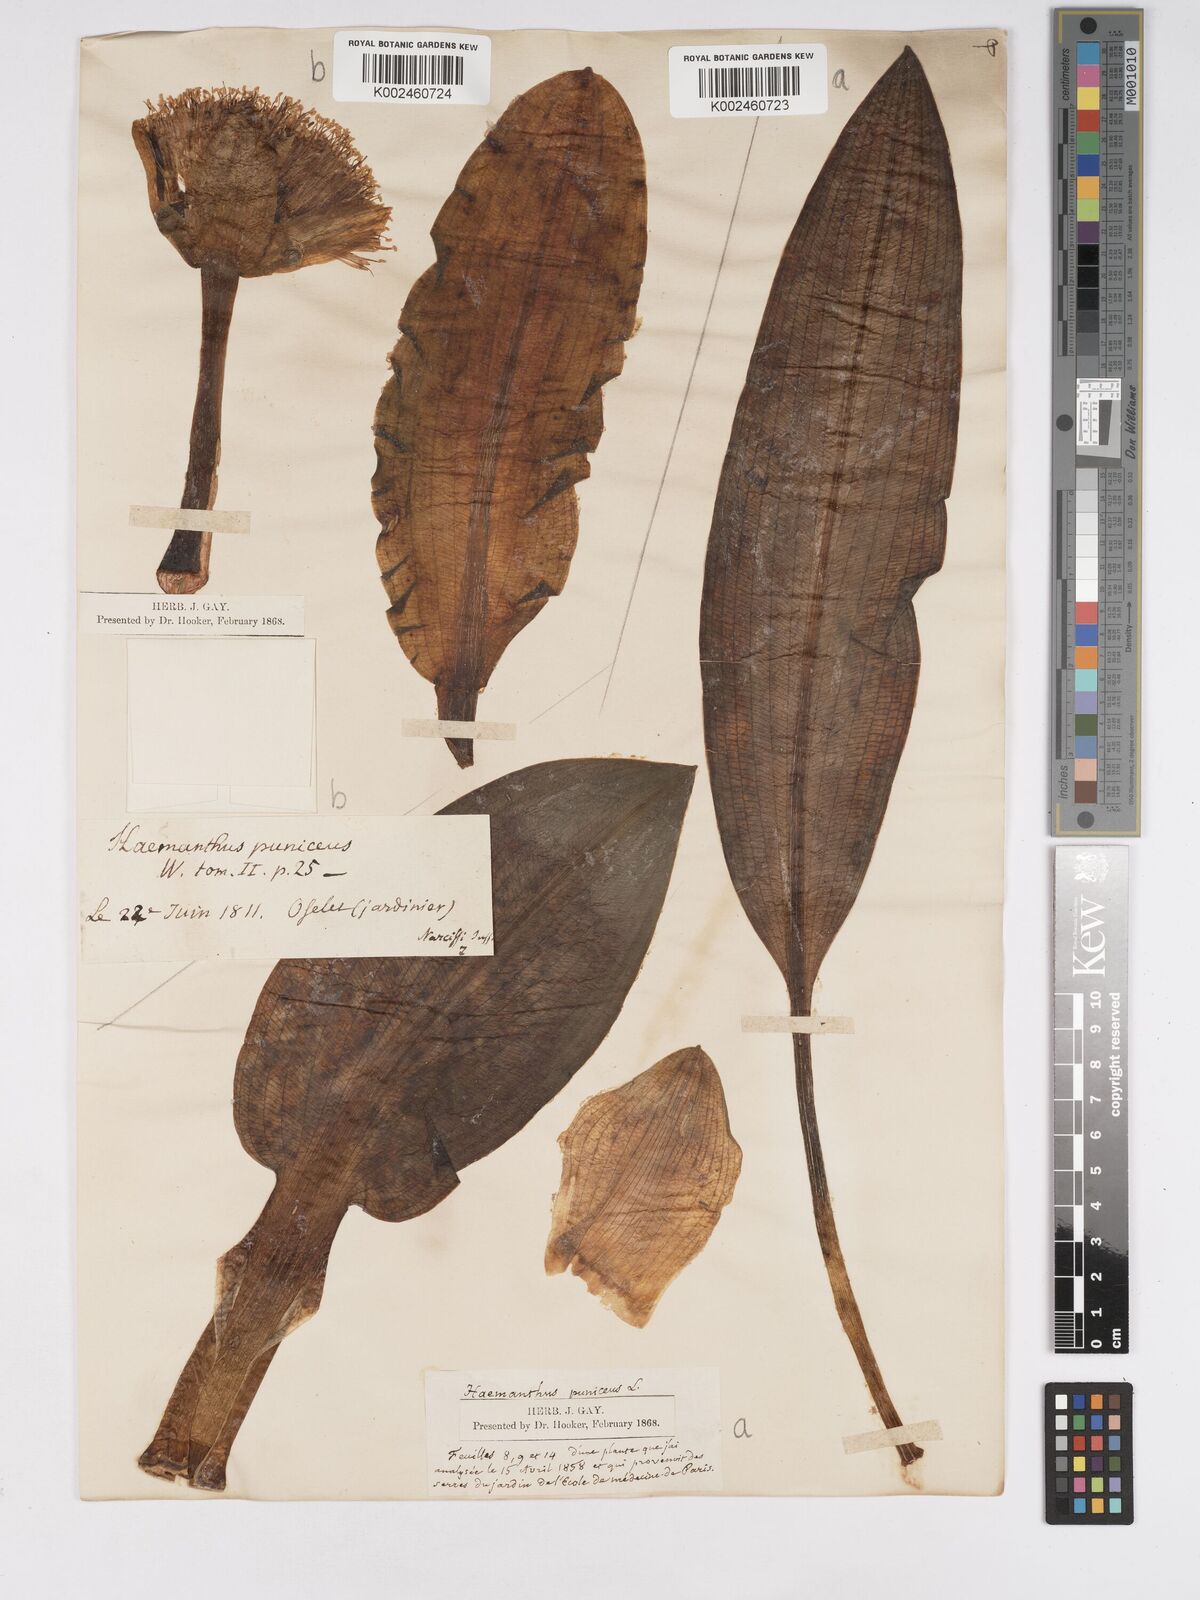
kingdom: Plantae
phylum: Tracheophyta
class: Liliopsida
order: Asparagales
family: Amaryllidaceae
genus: Scadoxus
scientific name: Scadoxus puniceus
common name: Royal-paintbrush
